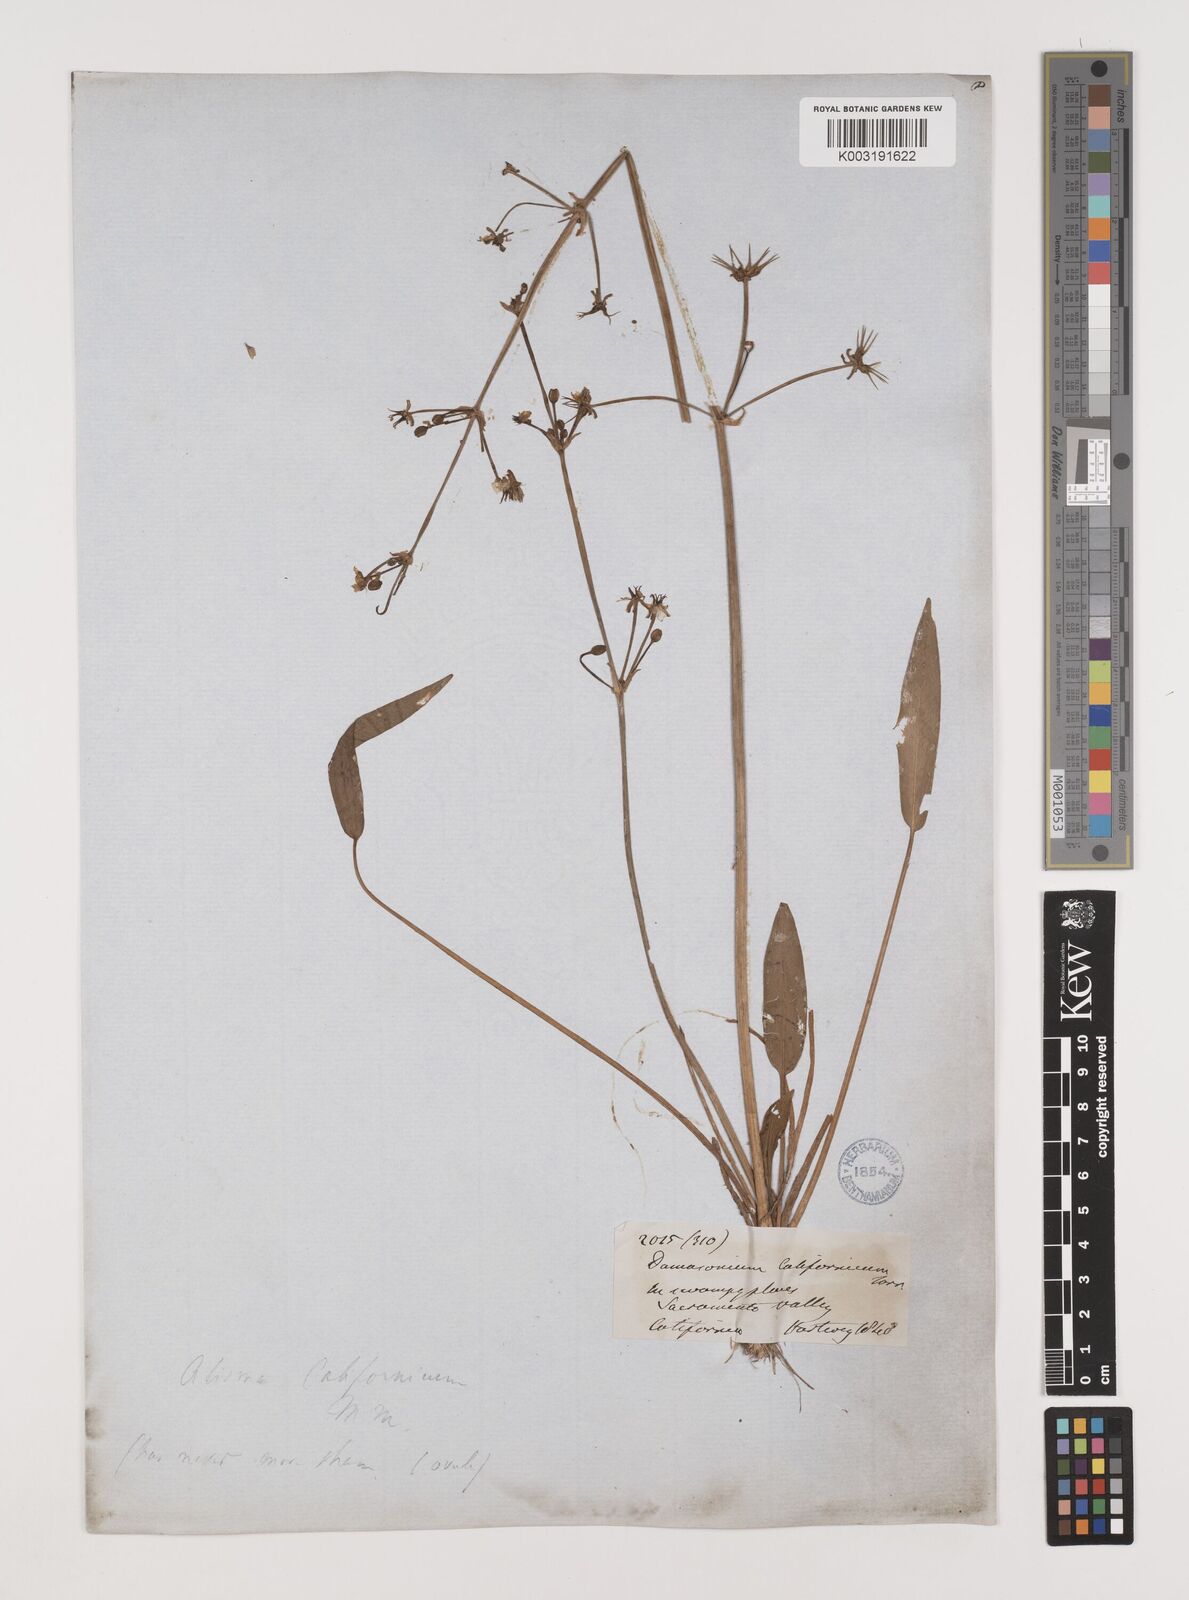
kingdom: Plantae
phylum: Tracheophyta
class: Liliopsida
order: Alismatales
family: Alismataceae
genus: Damasonium
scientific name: Damasonium
